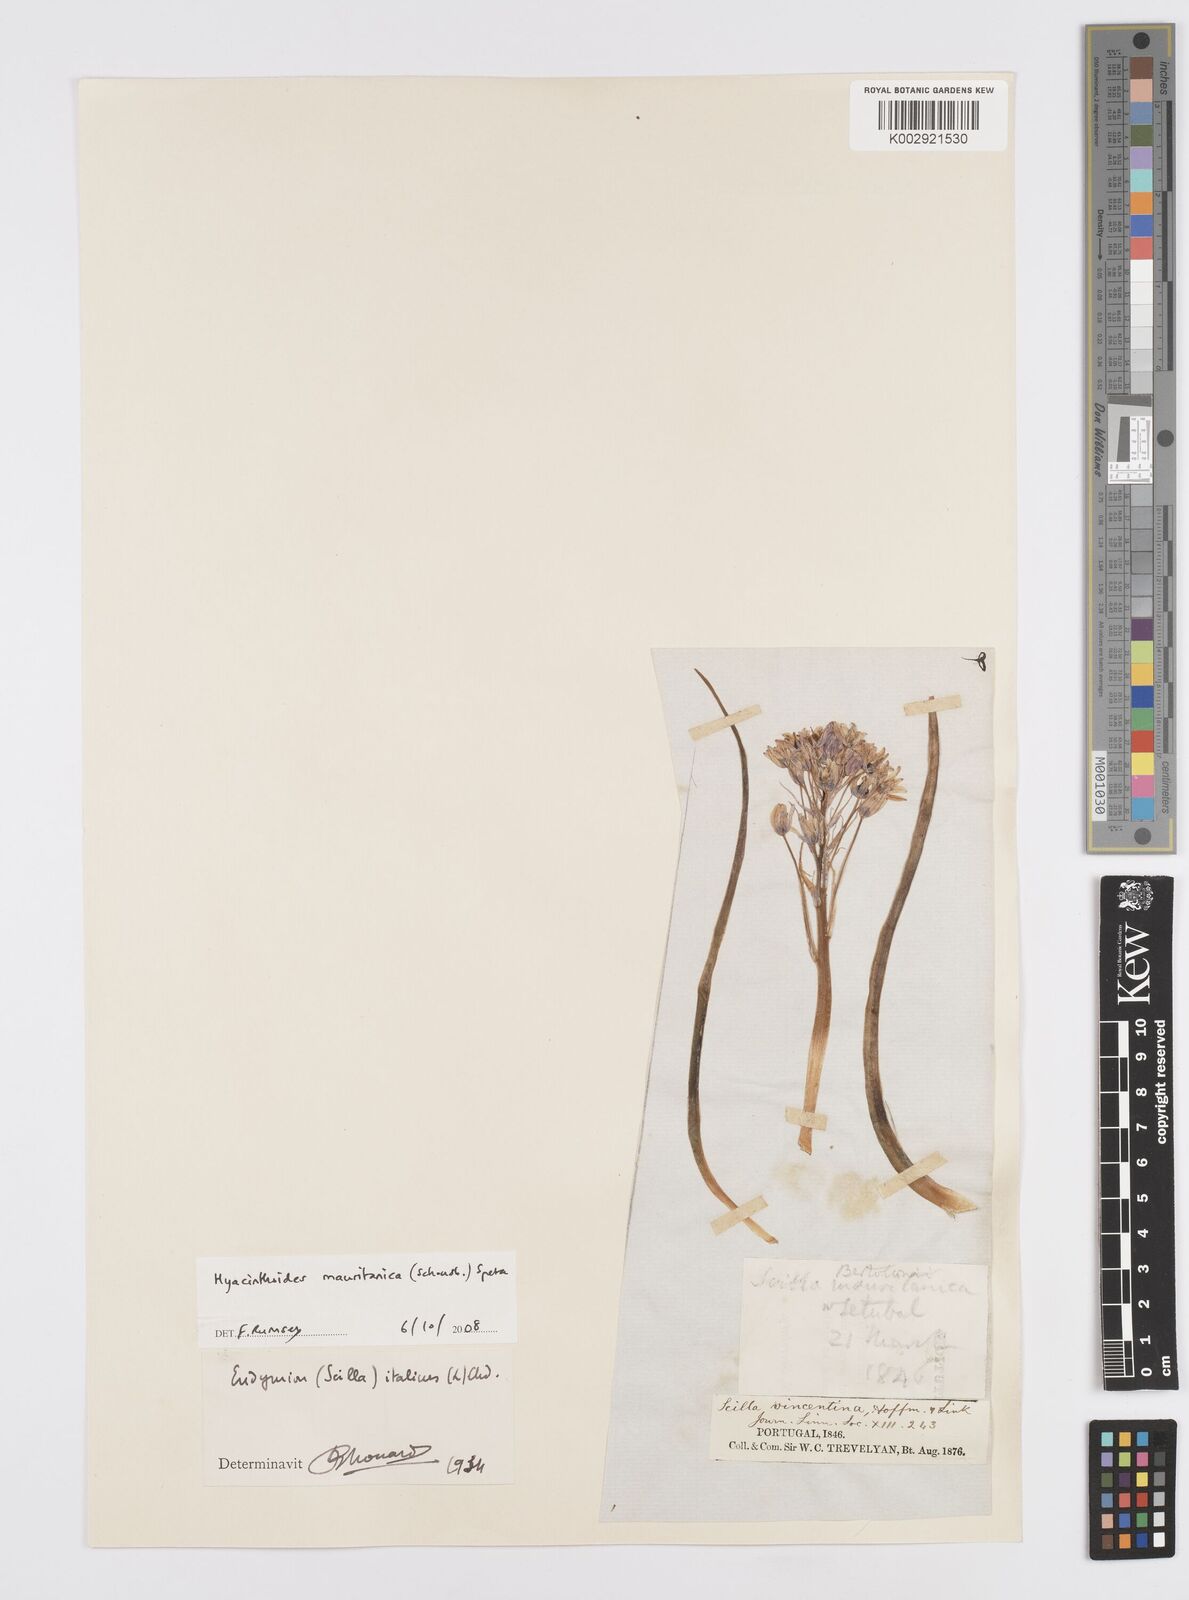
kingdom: Plantae
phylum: Tracheophyta
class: Liliopsida
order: Asparagales
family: Asparagaceae
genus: Hyacinthoides
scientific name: Hyacinthoides mauritanica
